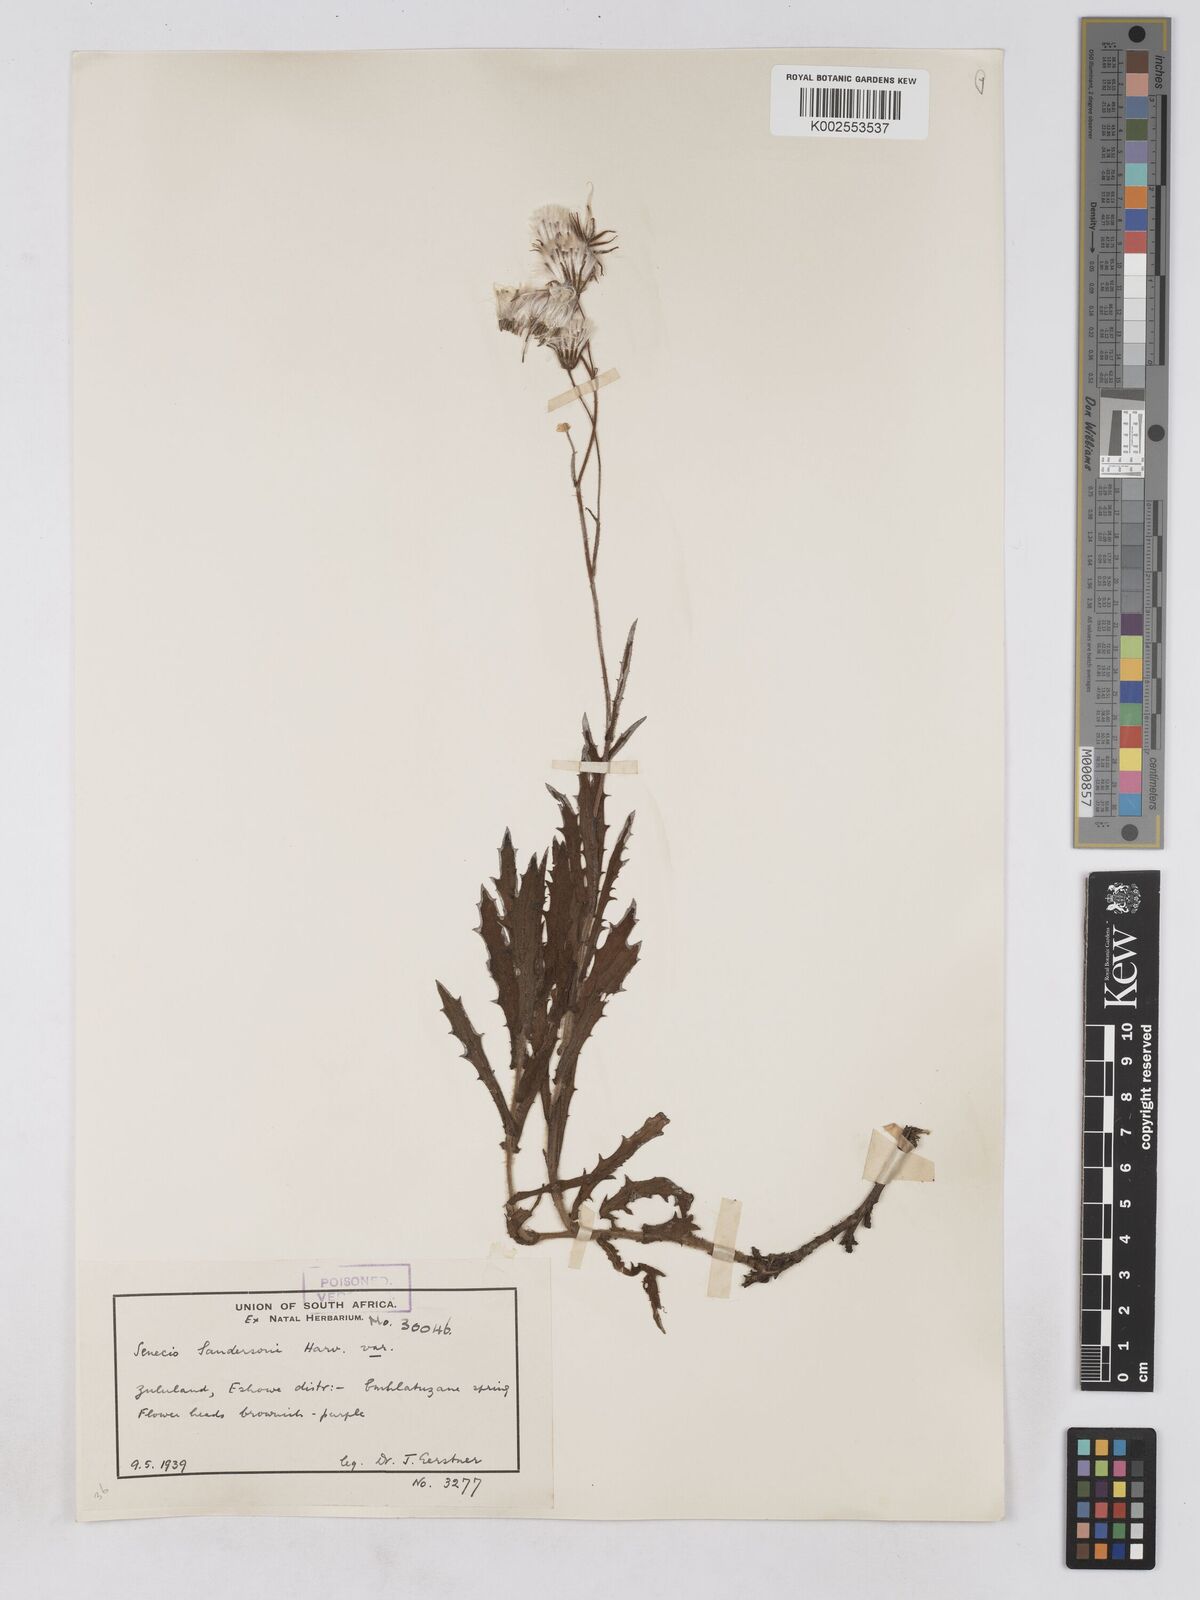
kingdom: Plantae
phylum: Tracheophyta
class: Magnoliopsida
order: Asterales
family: Asteraceae
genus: Senecio
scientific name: Senecio sandersonii
